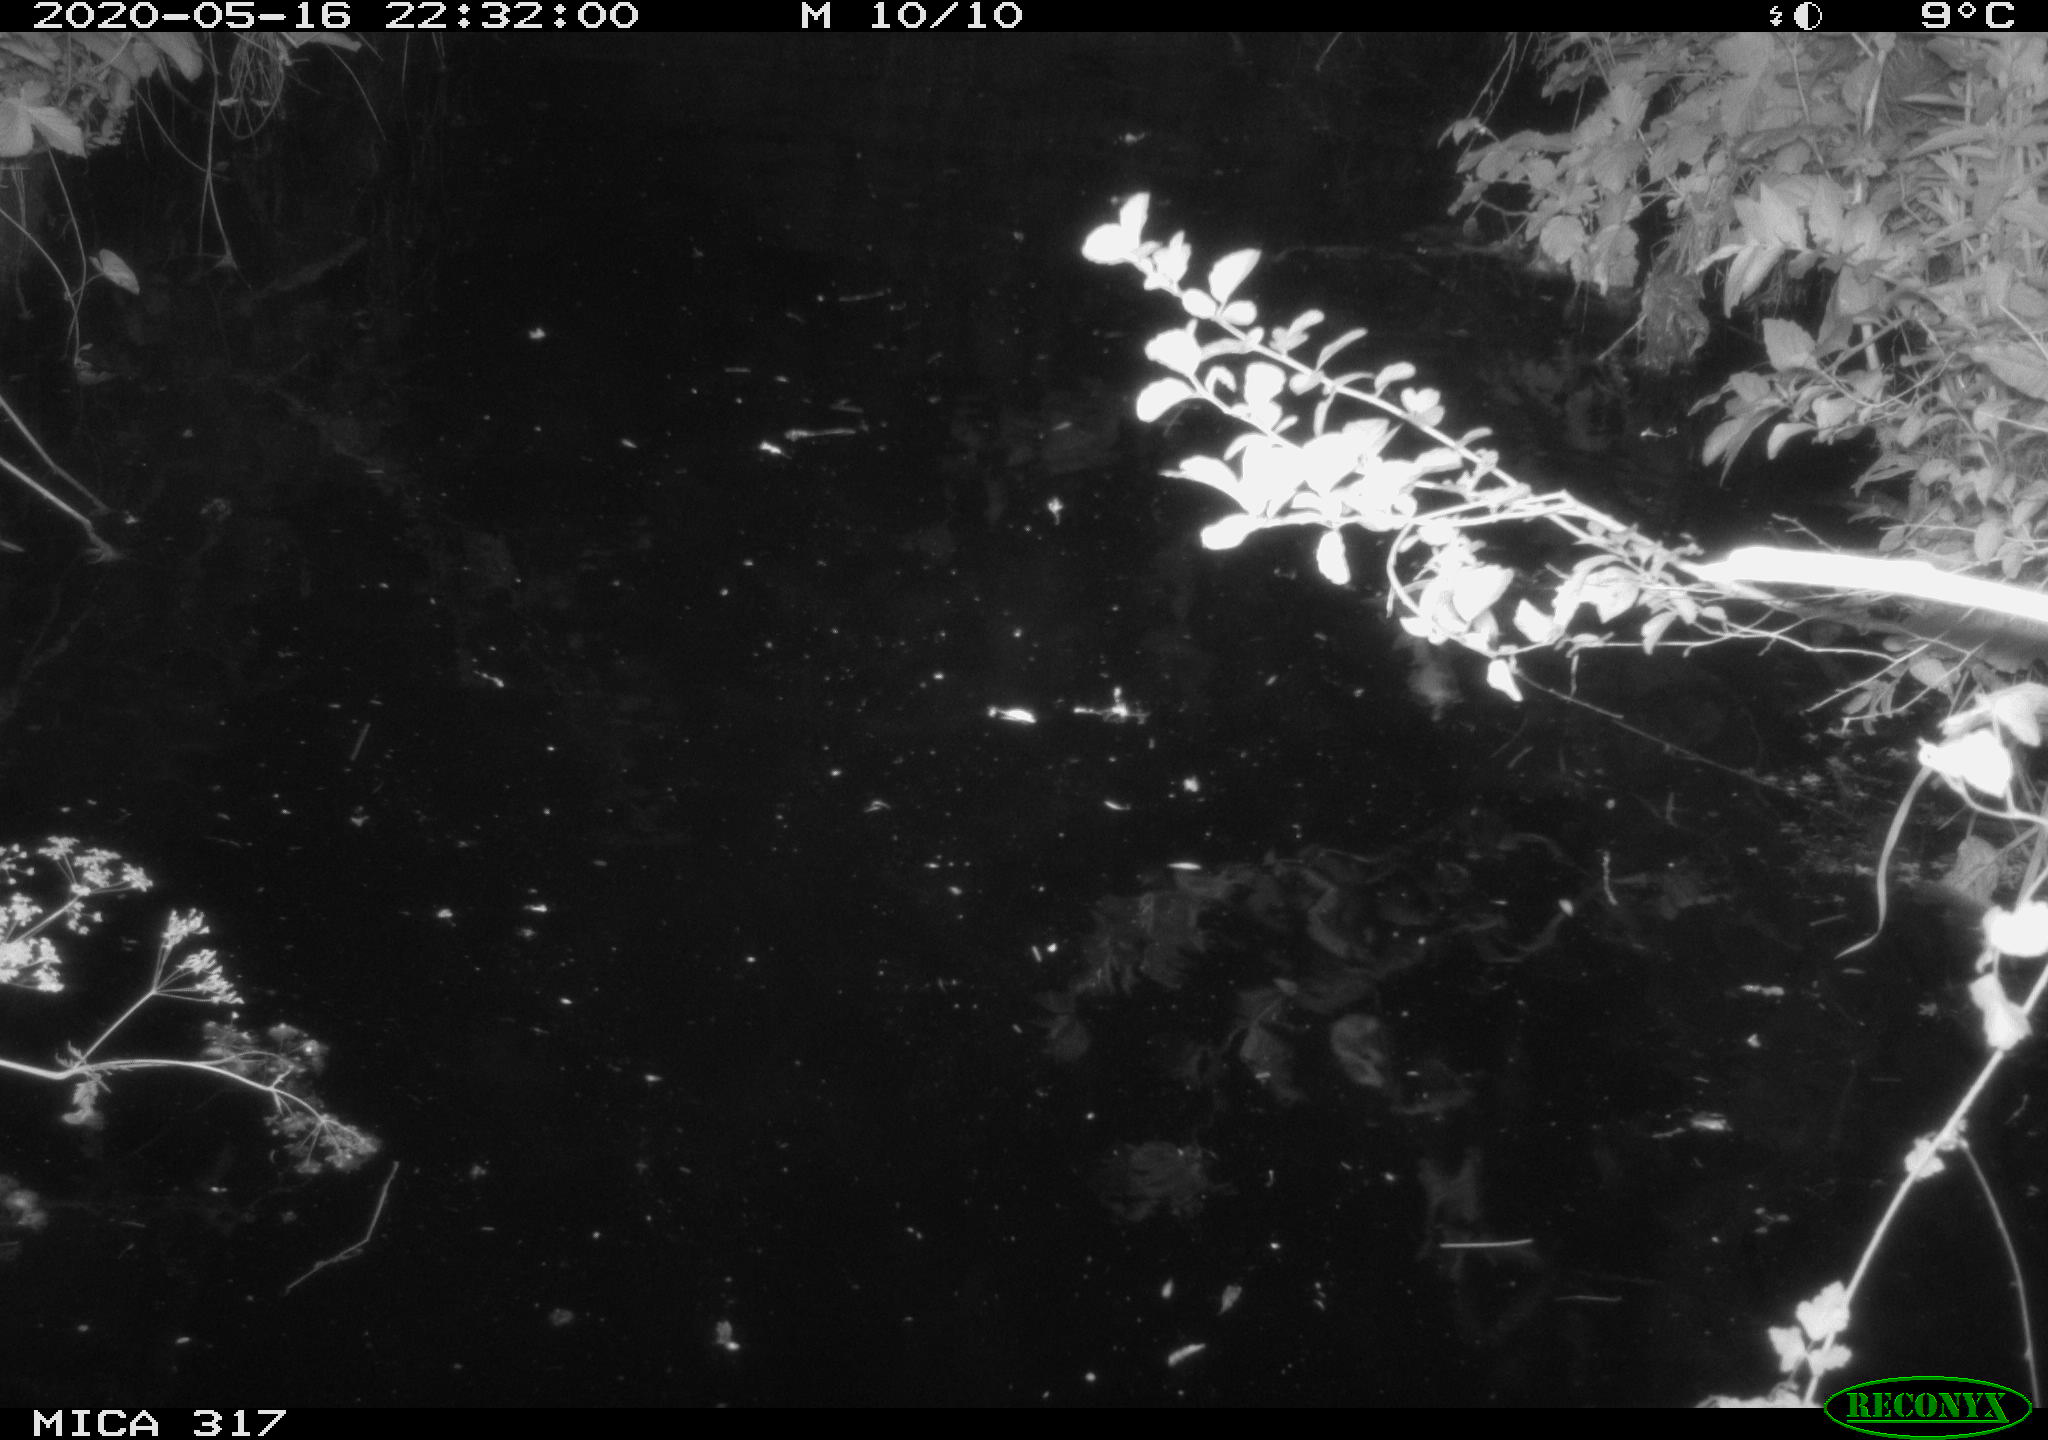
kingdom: Animalia
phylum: Chordata
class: Aves
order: Anseriformes
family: Anatidae
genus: Anas
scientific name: Anas platyrhynchos
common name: Mallard
